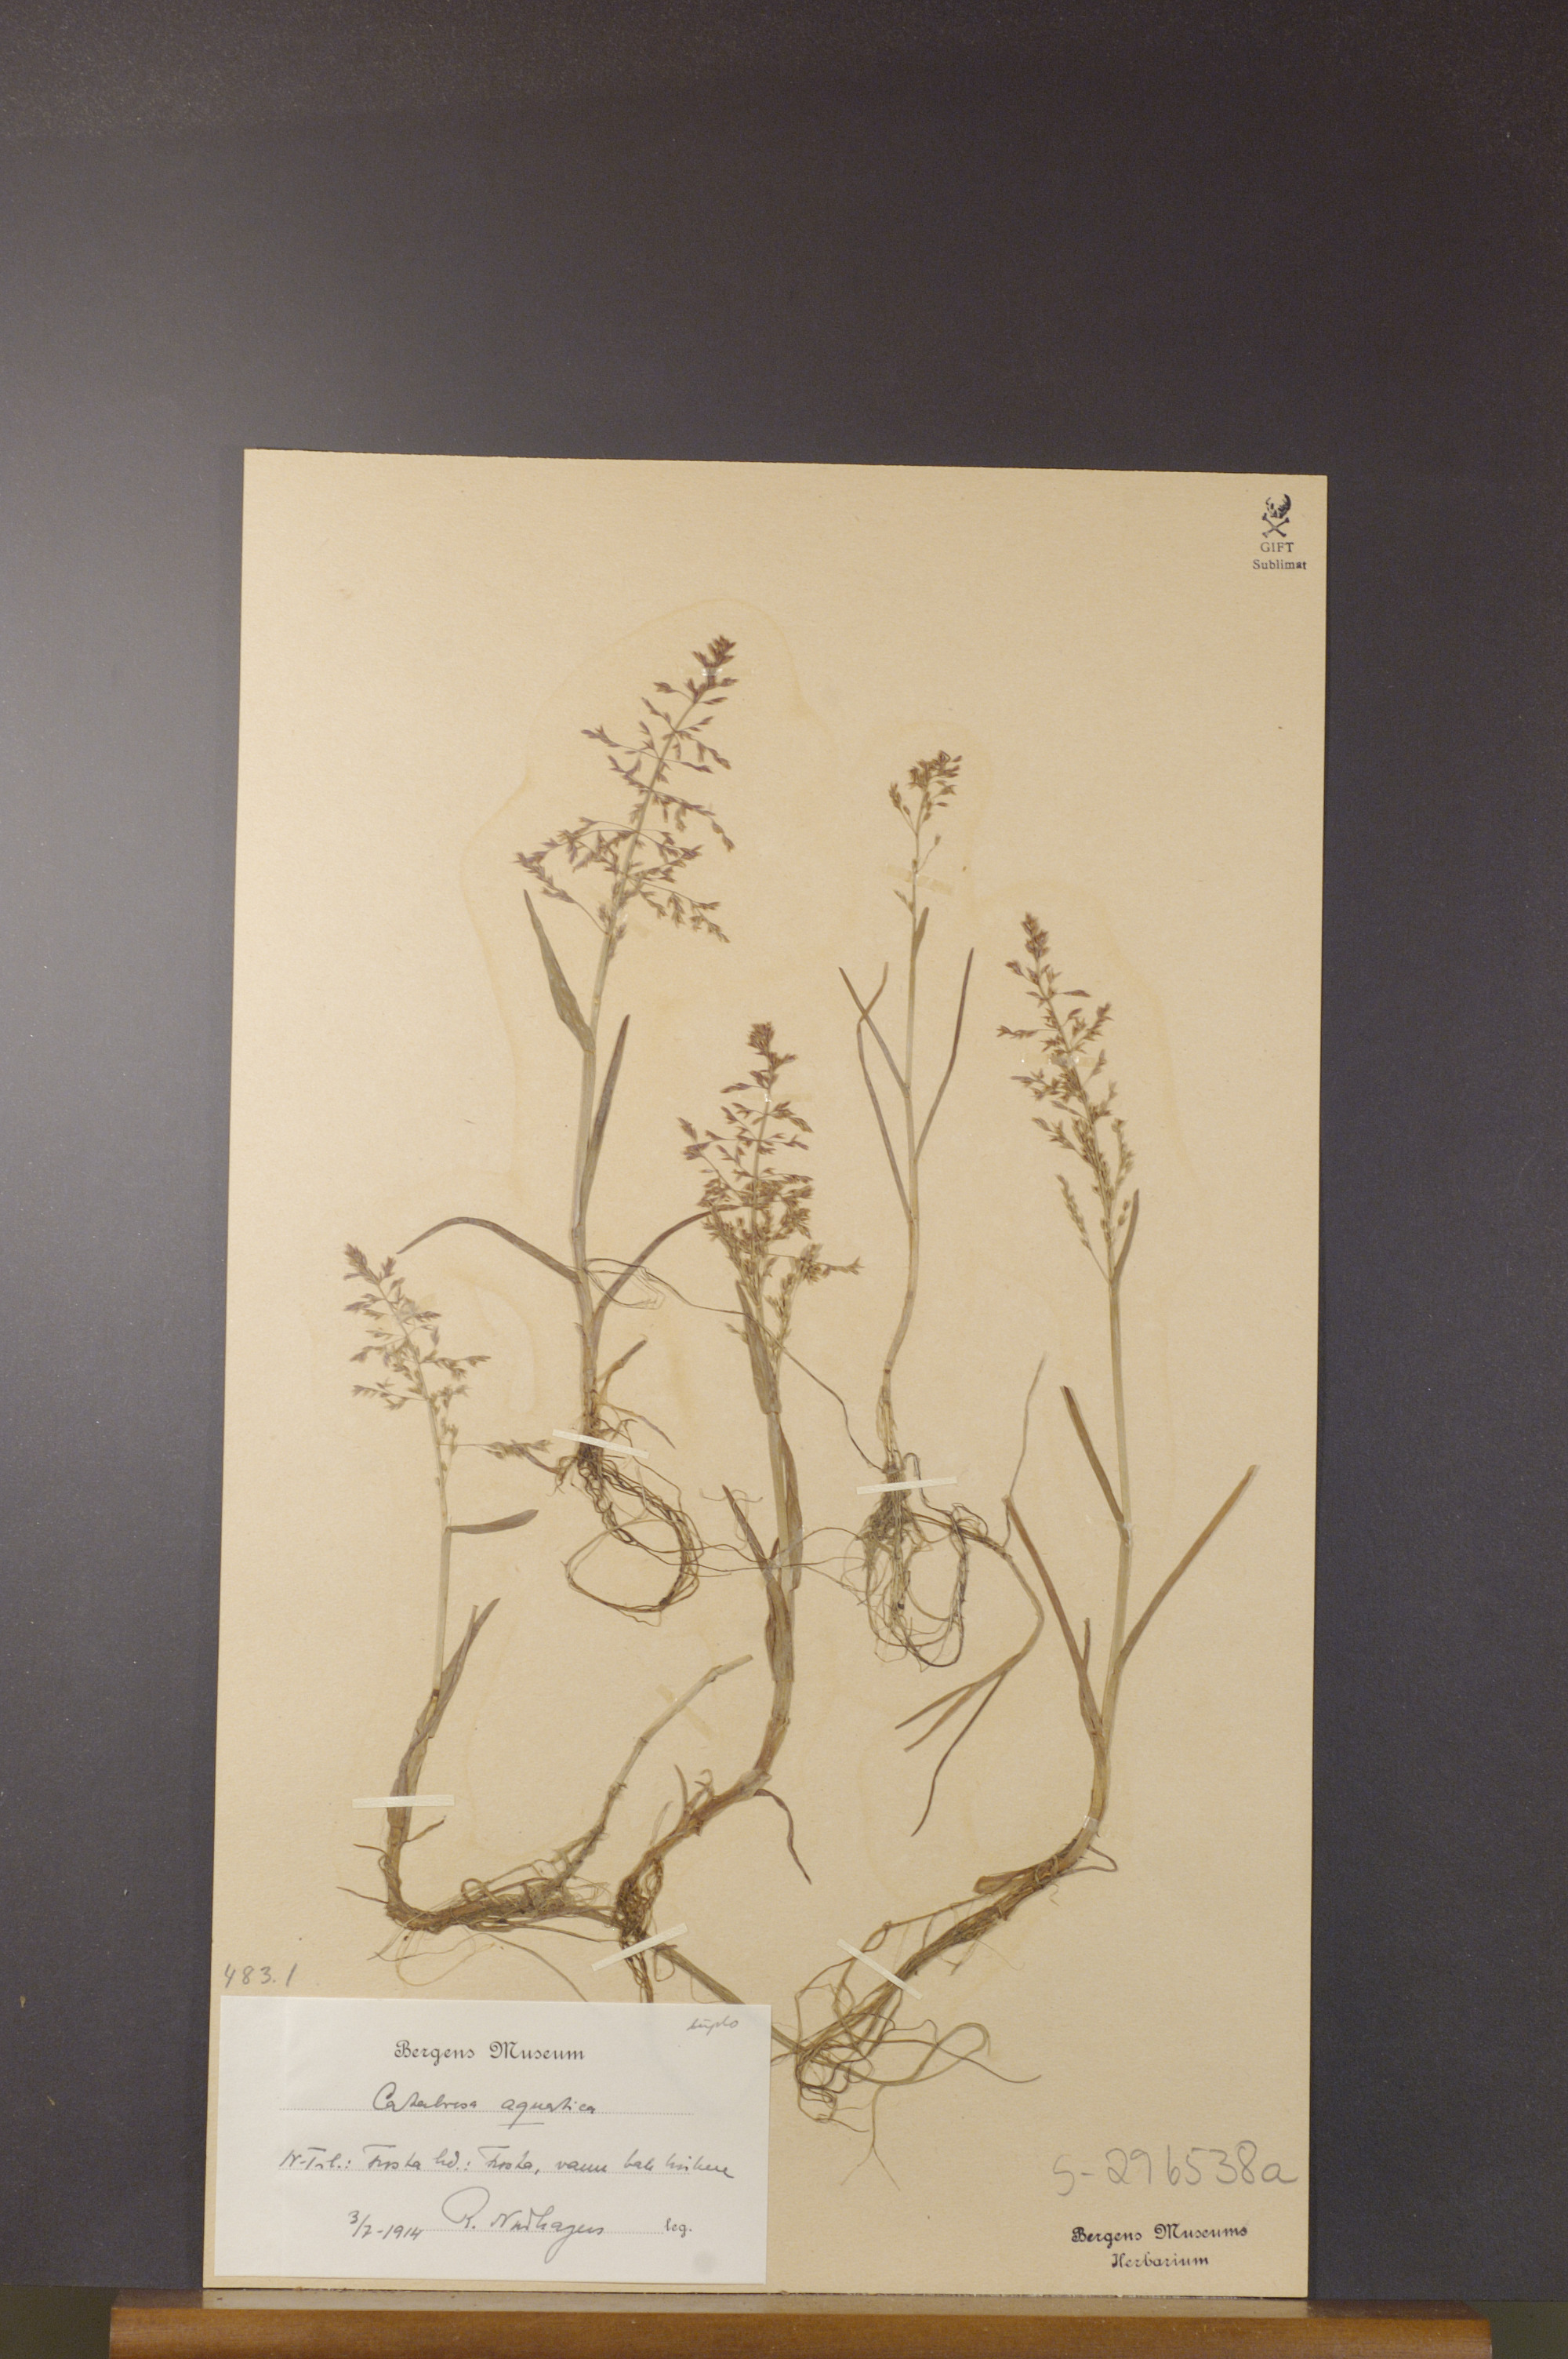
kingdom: Plantae
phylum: Tracheophyta
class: Liliopsida
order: Poales
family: Poaceae
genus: Catabrosa
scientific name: Catabrosa aquatica
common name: Whorl-grass
